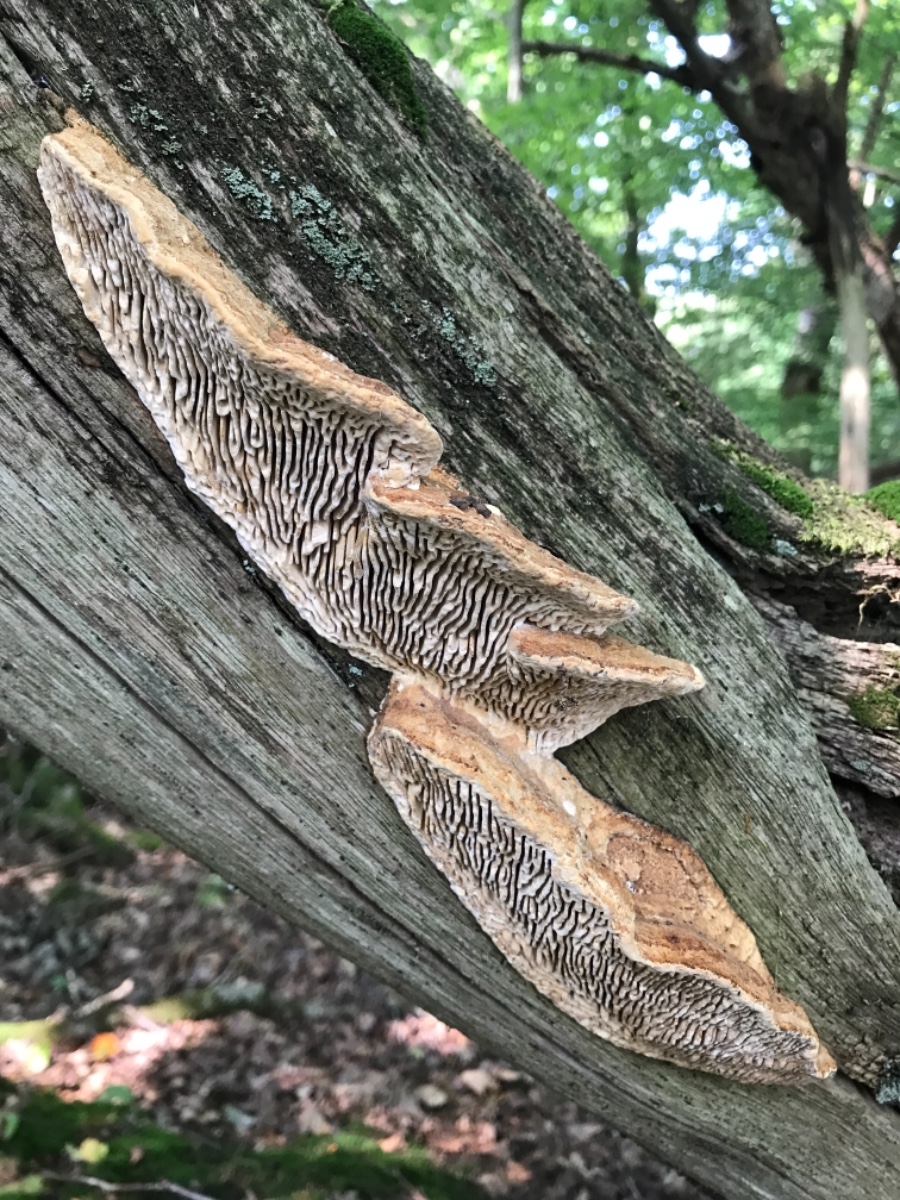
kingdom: Fungi
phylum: Basidiomycota
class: Agaricomycetes
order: Polyporales
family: Fomitopsidaceae
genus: Daedalea
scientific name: Daedalea quercina
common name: ege-labyrintsvamp
